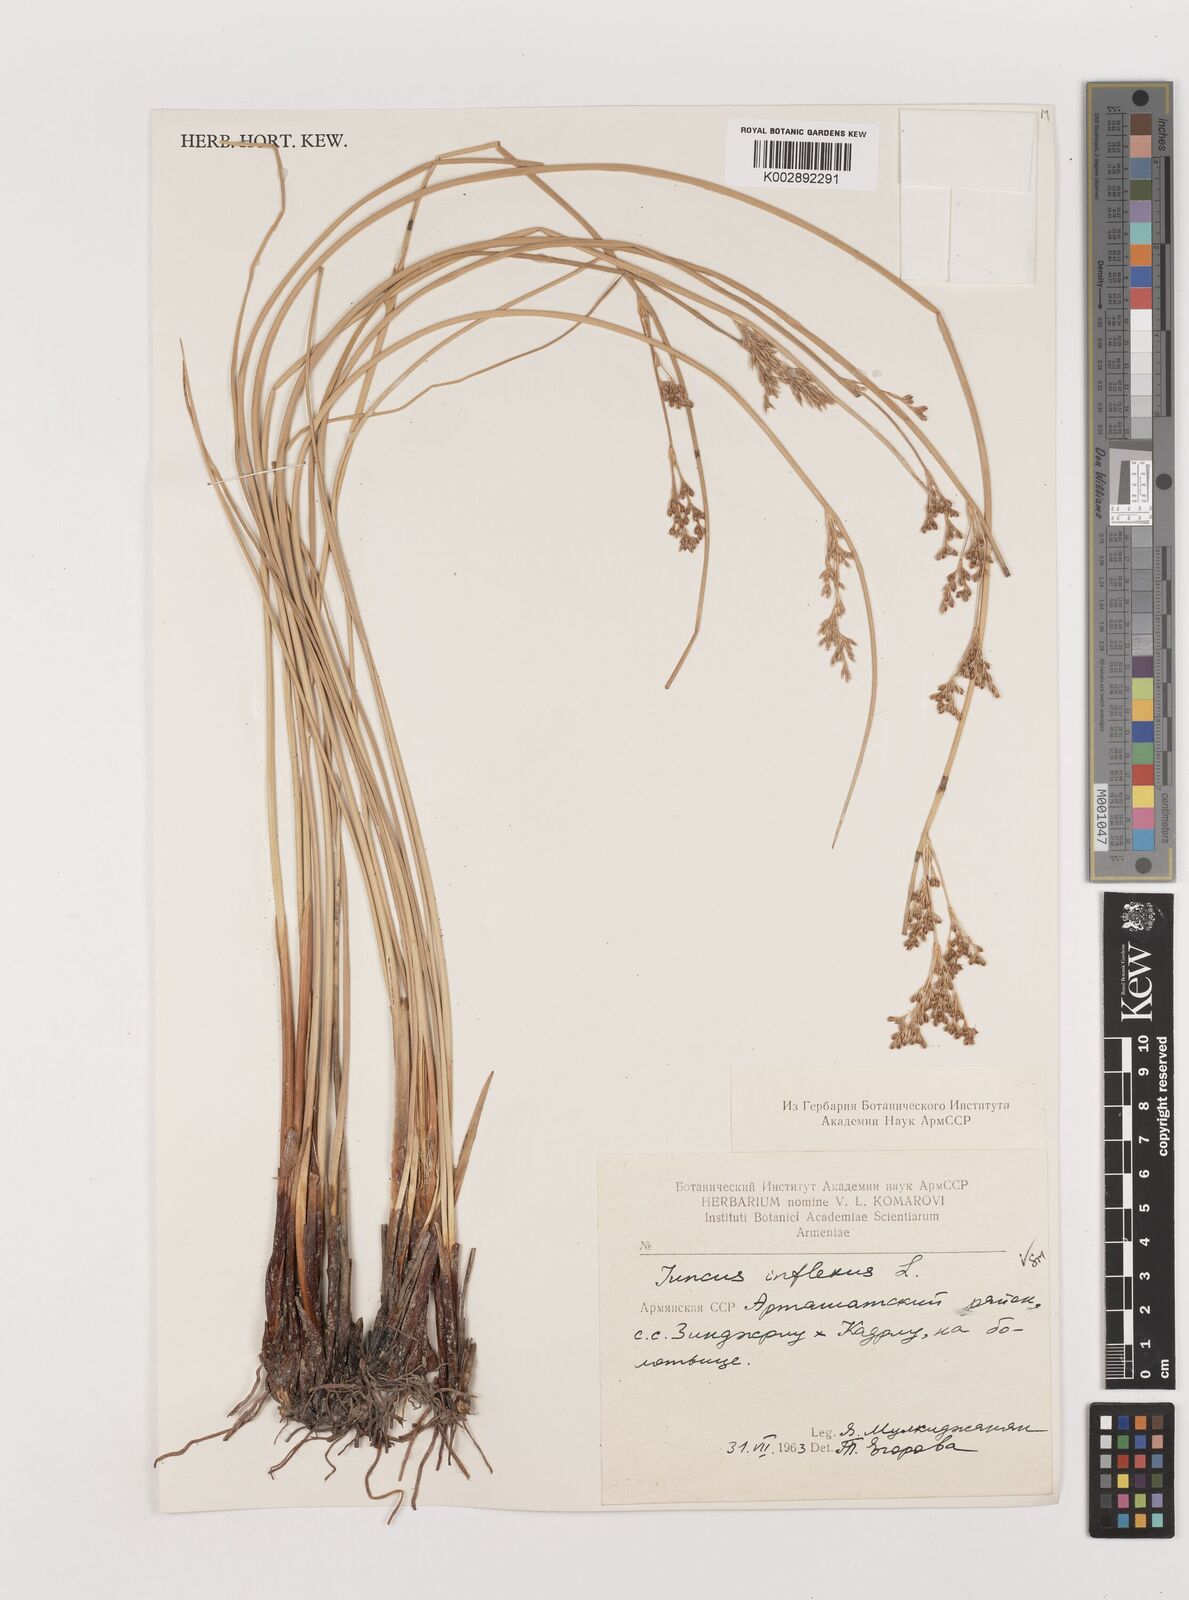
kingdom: Plantae
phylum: Tracheophyta
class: Liliopsida
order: Poales
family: Juncaceae
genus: Juncus
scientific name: Juncus inflexus
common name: Hard rush
